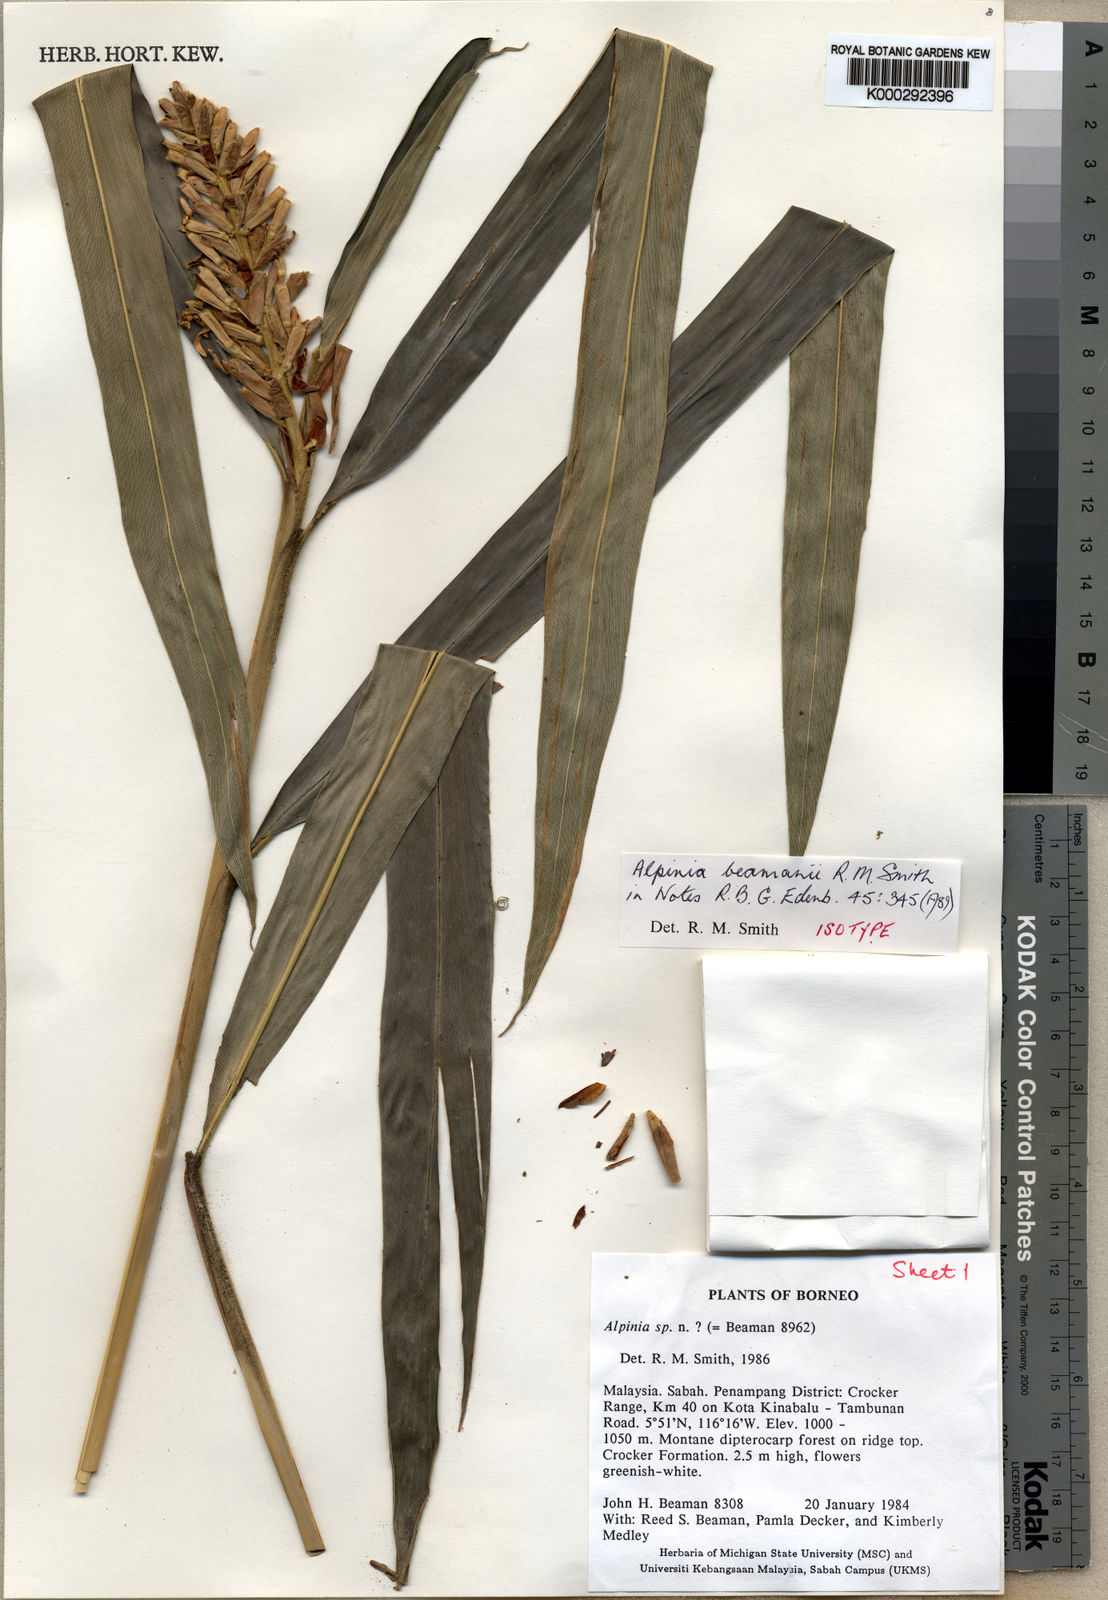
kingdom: Plantae
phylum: Tracheophyta
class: Liliopsida
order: Zingiberales
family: Zingiberaceae
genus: Alpinia
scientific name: Alpinia beamanii
